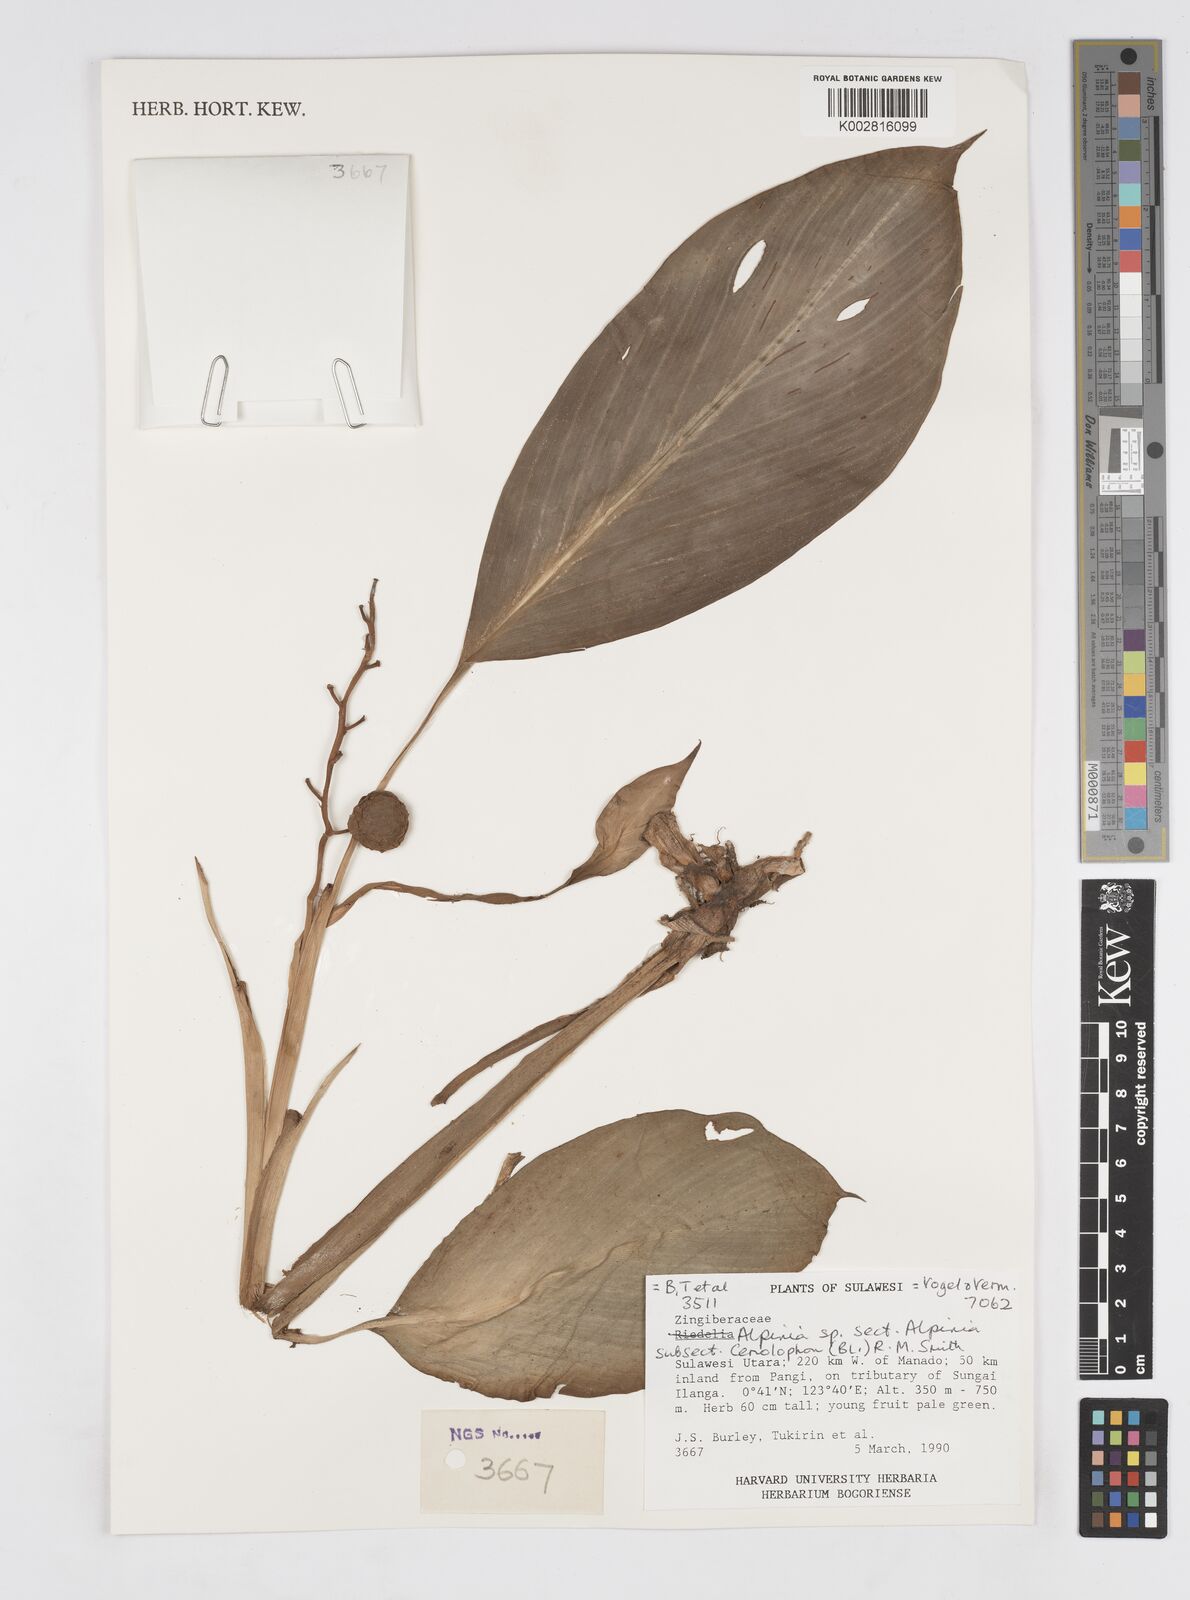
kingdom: Plantae
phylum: Tracheophyta
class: Liliopsida
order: Zingiberales
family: Zingiberaceae
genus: Alpinia
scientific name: Alpinia
